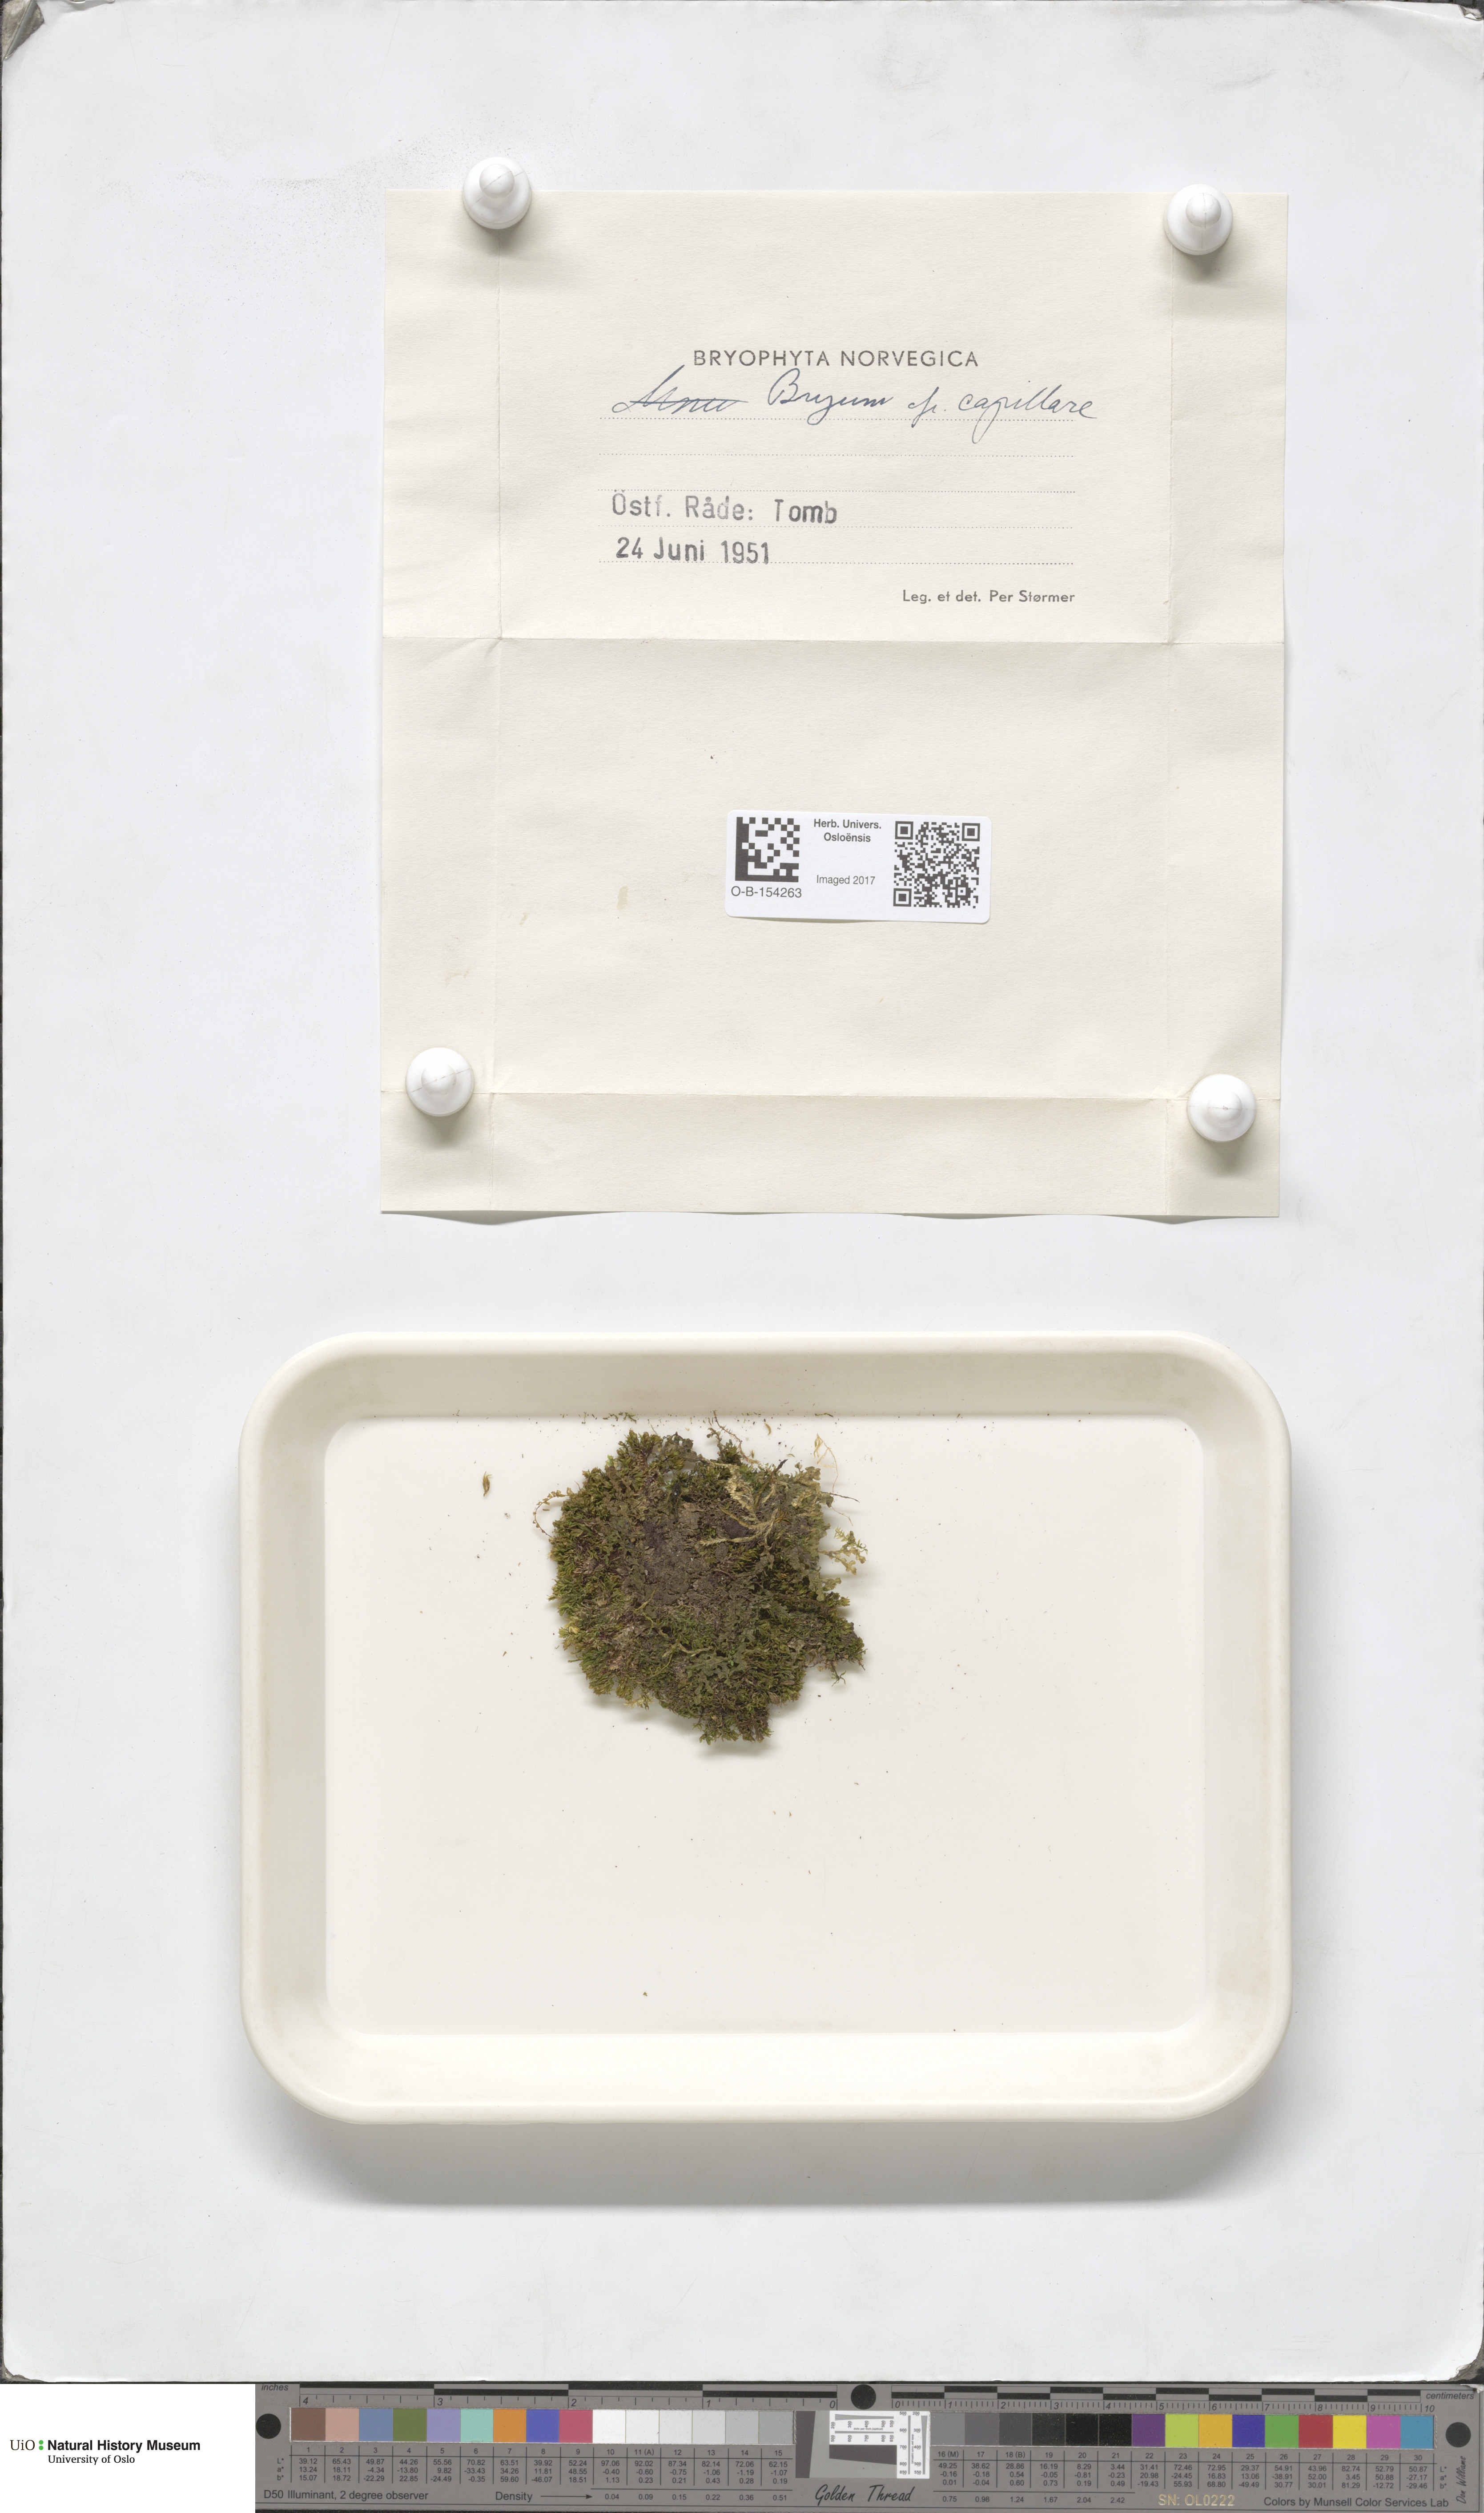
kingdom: Plantae
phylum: Bryophyta
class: Bryopsida
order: Bryales
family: Bryaceae
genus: Rosulabryum
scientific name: Rosulabryum capillare
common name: Capillary thread-moss
